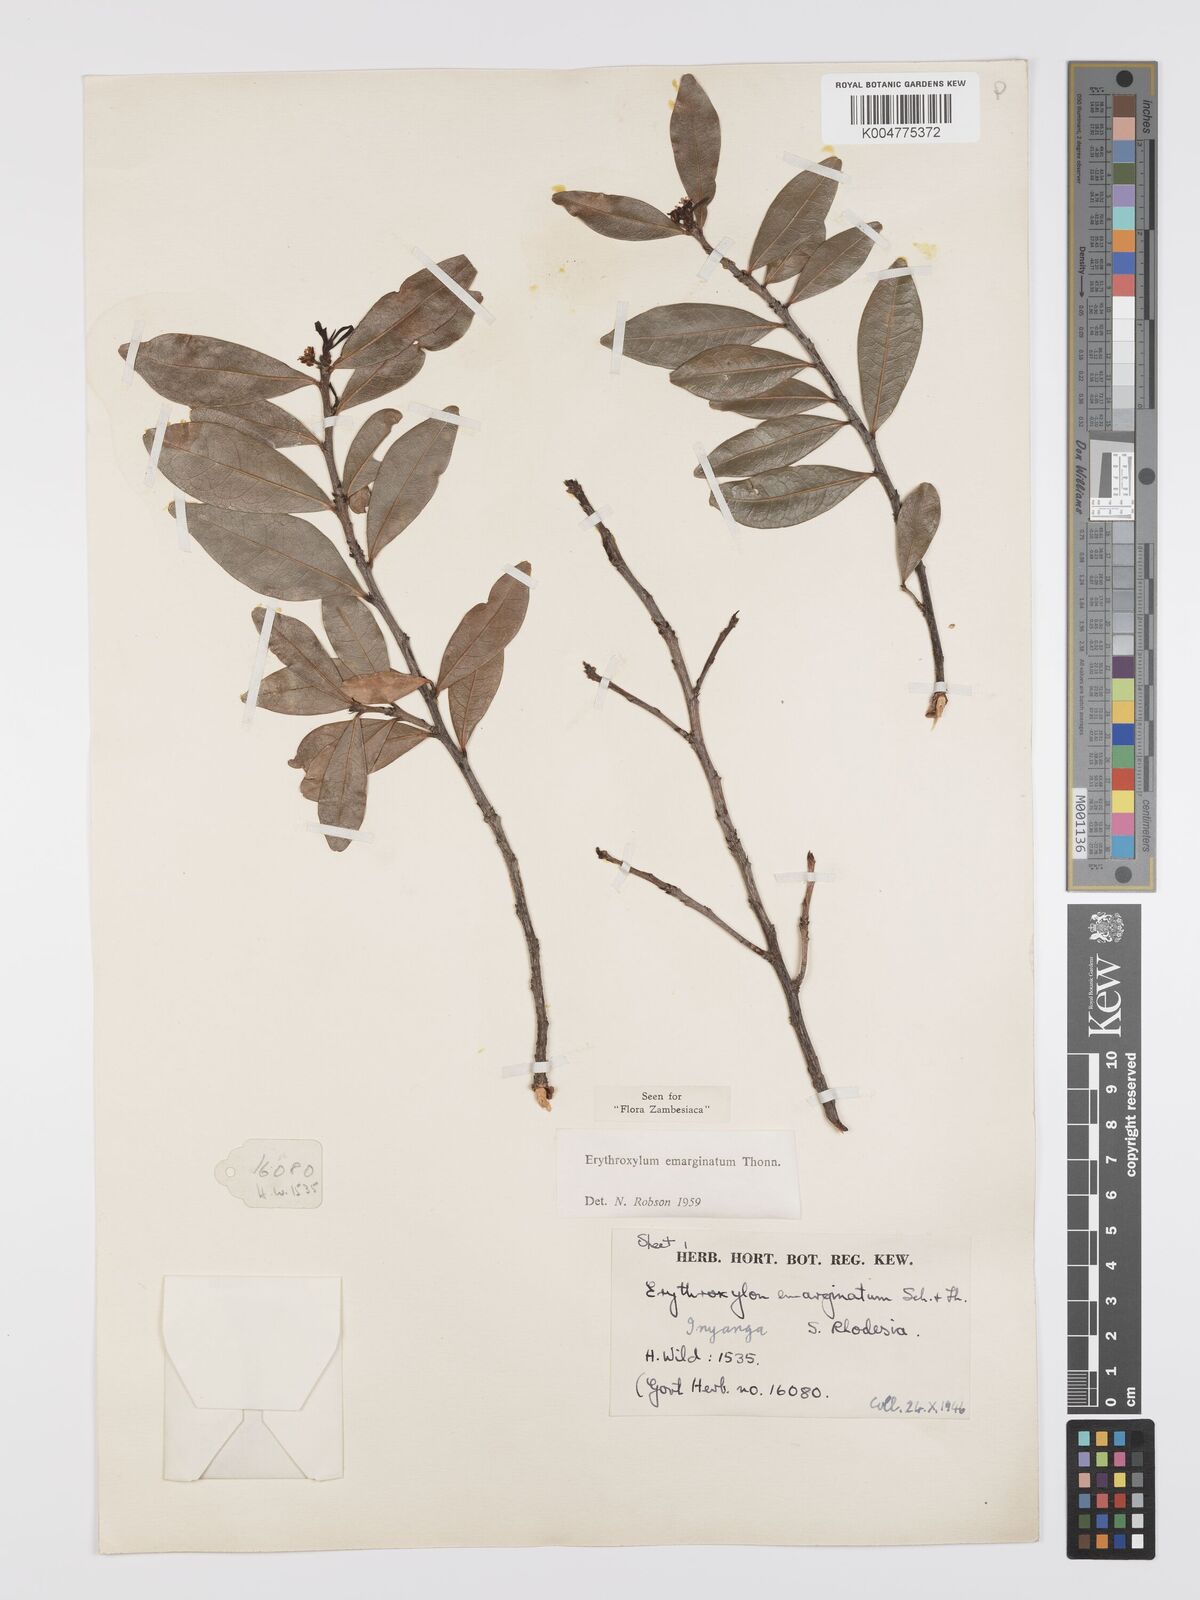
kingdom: Plantae
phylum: Tracheophyta
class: Magnoliopsida
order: Malpighiales
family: Erythroxylaceae
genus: Erythroxylum
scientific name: Erythroxylum emarginatum
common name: African coca-tree
